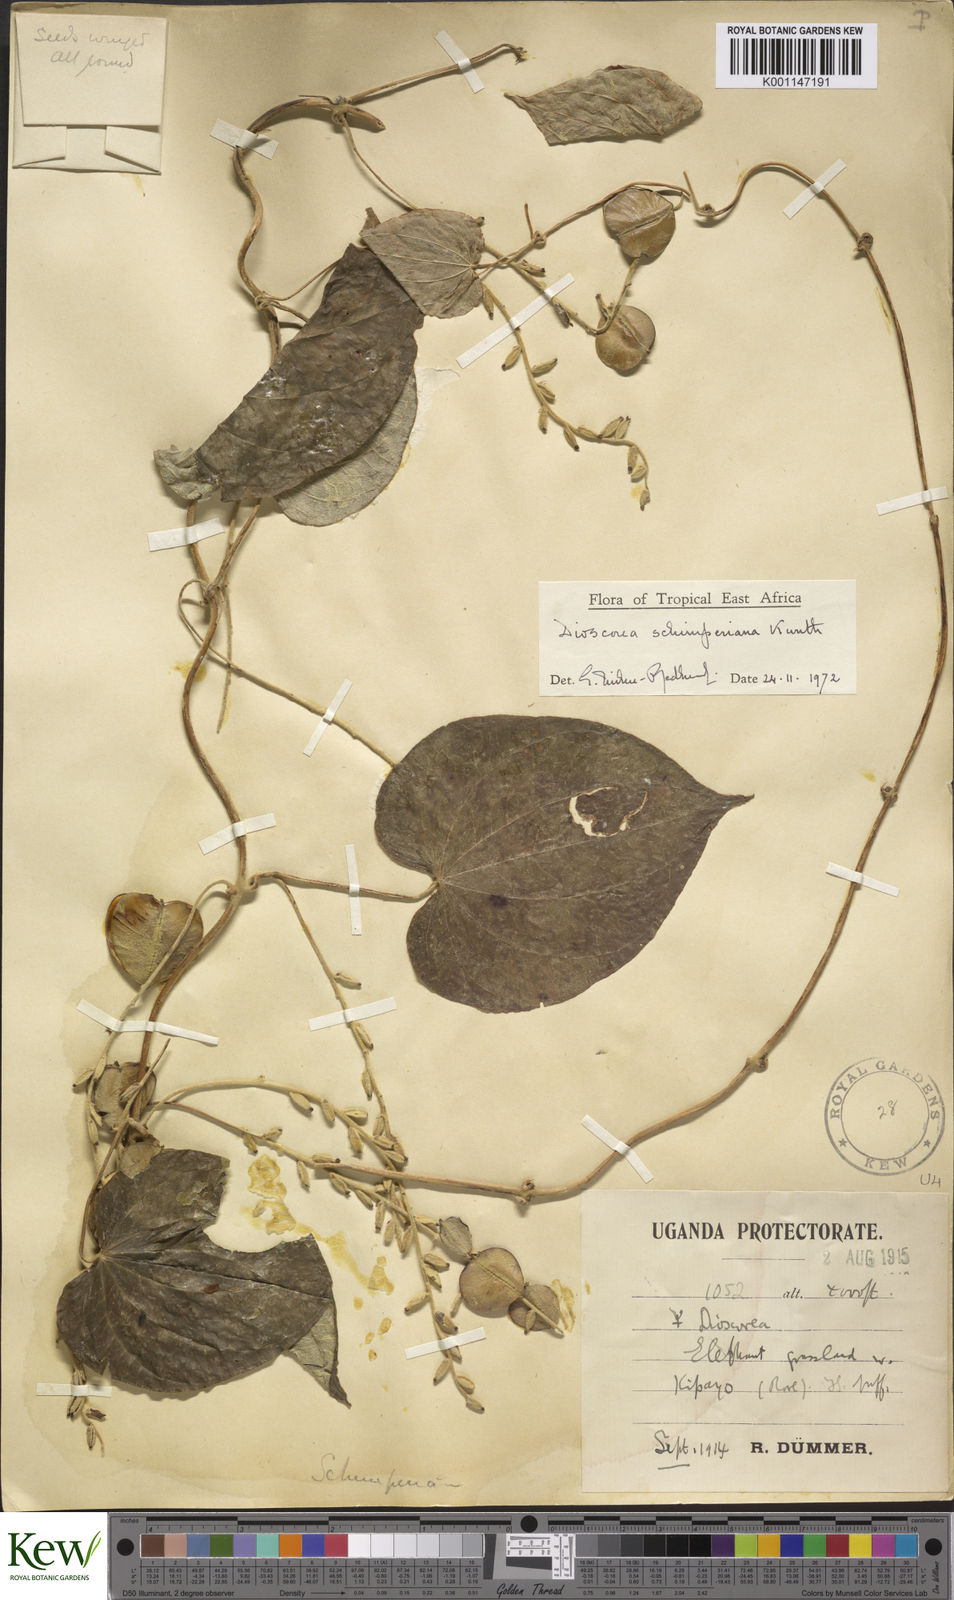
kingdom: Plantae
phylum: Tracheophyta
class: Liliopsida
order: Dioscoreales
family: Dioscoreaceae
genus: Dioscorea
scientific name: Dioscorea schimperiana
